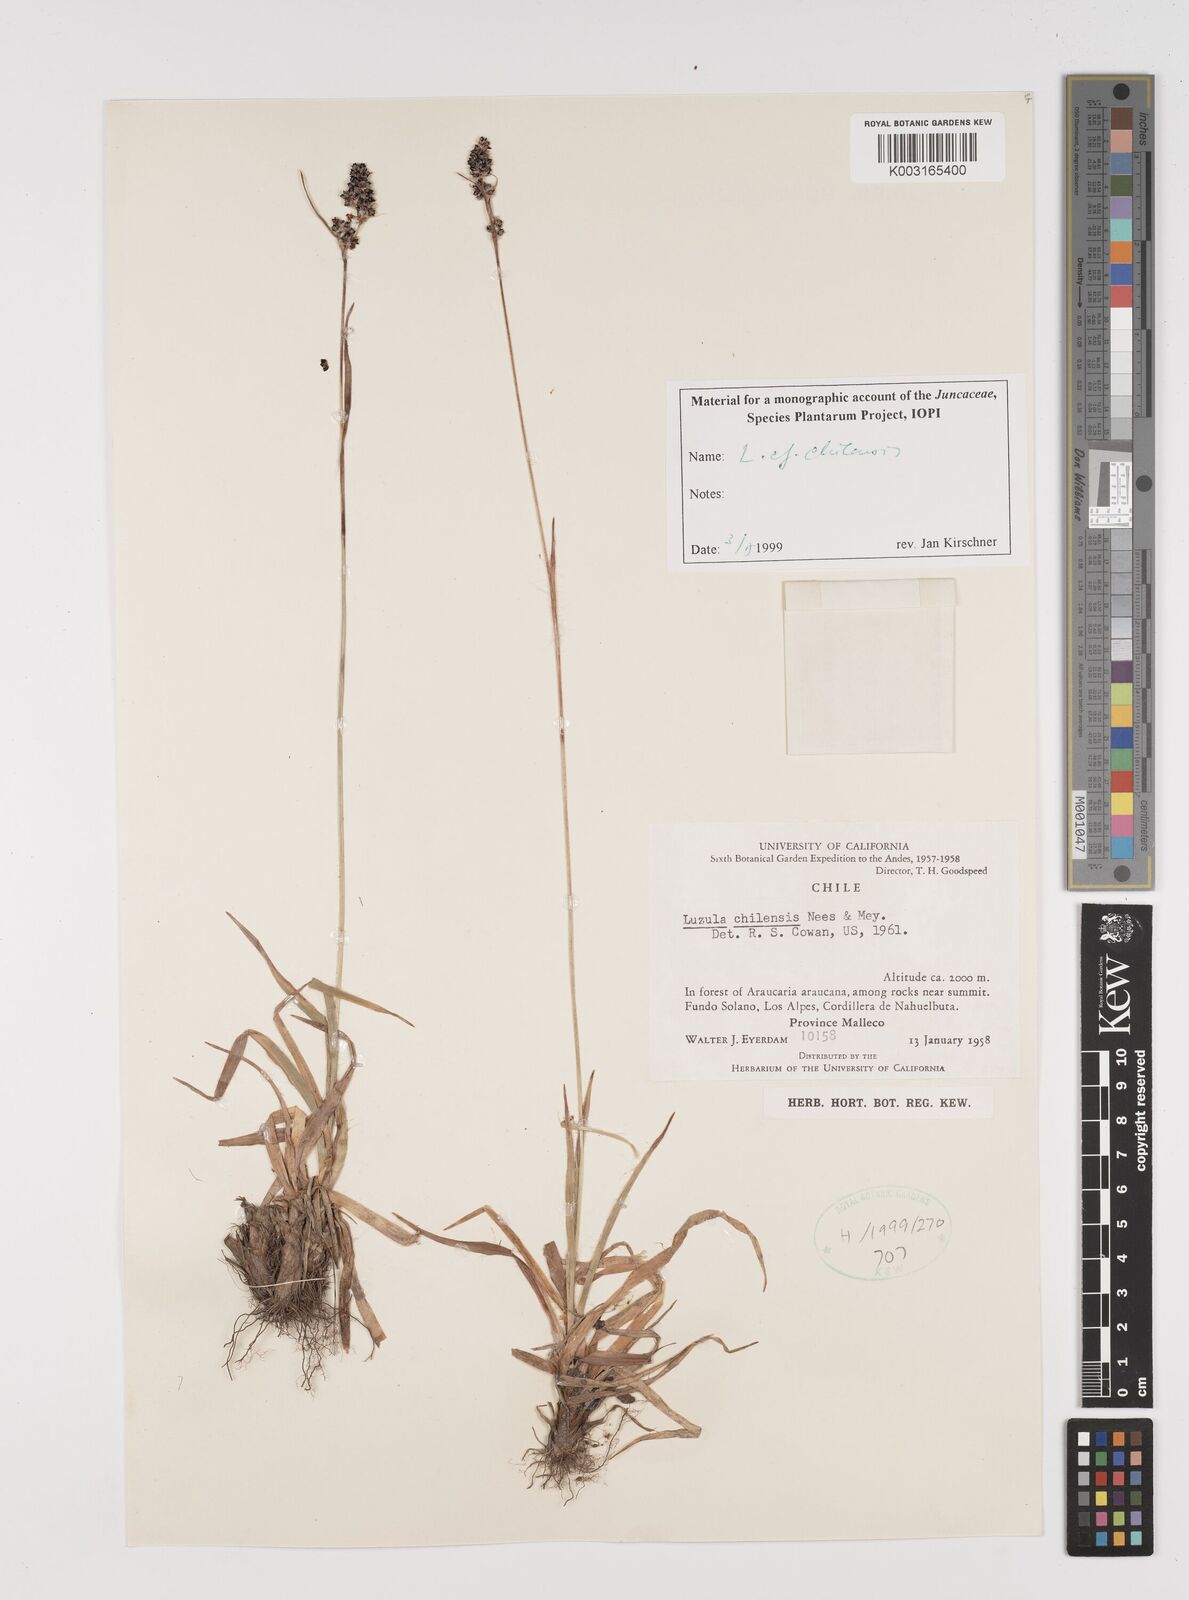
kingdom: Plantae
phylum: Tracheophyta
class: Liliopsida
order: Poales
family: Juncaceae
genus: Luzula
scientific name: Luzula chilensis
